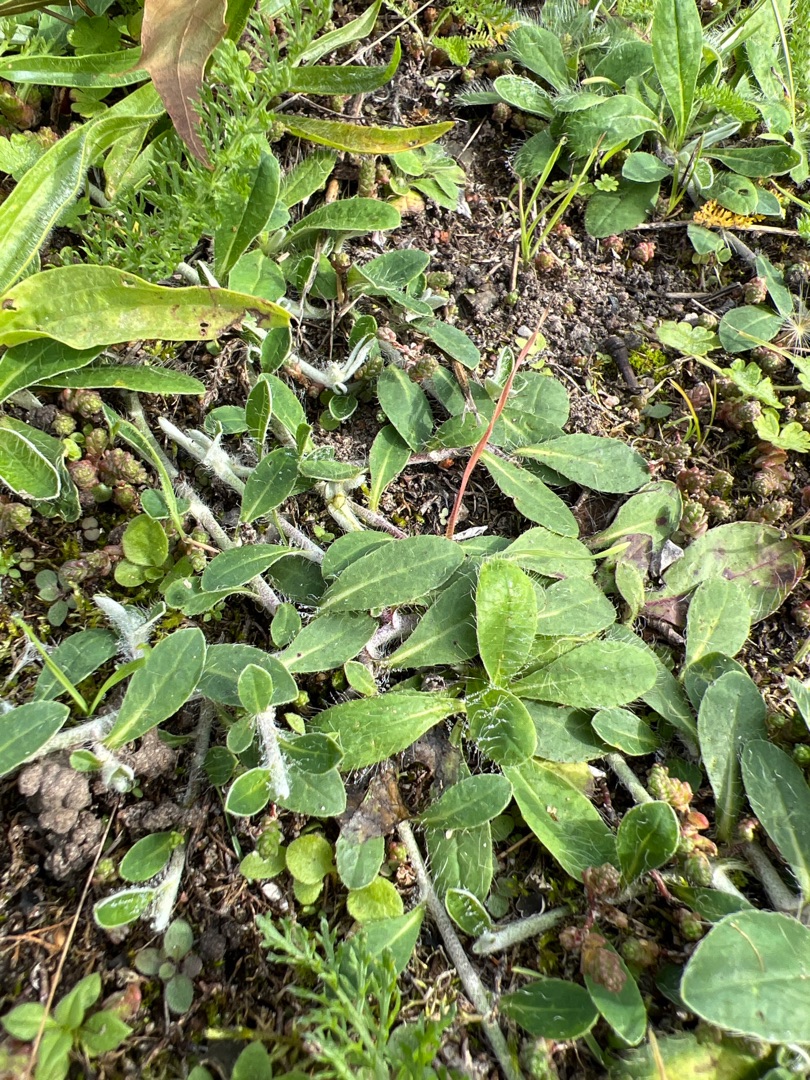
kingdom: Plantae
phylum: Tracheophyta
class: Magnoliopsida
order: Asterales
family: Asteraceae
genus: Pilosella
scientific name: Pilosella officinarum
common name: Håret høgeurt
